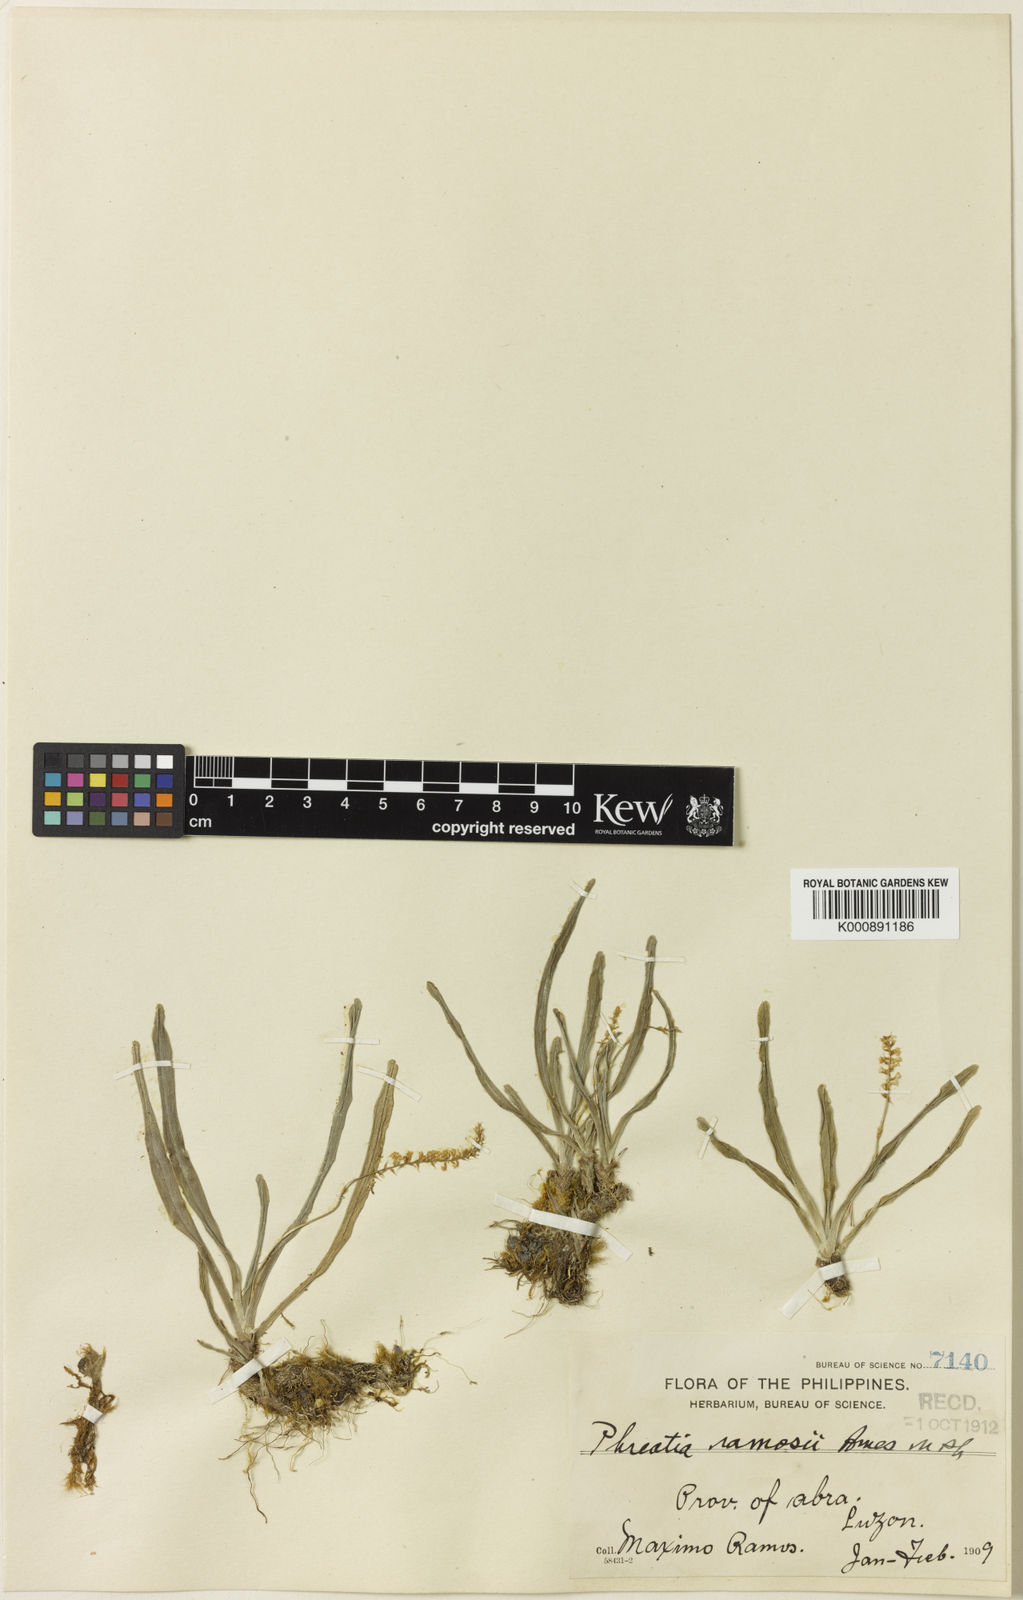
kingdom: Plantae
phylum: Tracheophyta
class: Liliopsida
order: Asparagales
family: Orchidaceae
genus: Phreatia
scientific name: Phreatia ramosii
